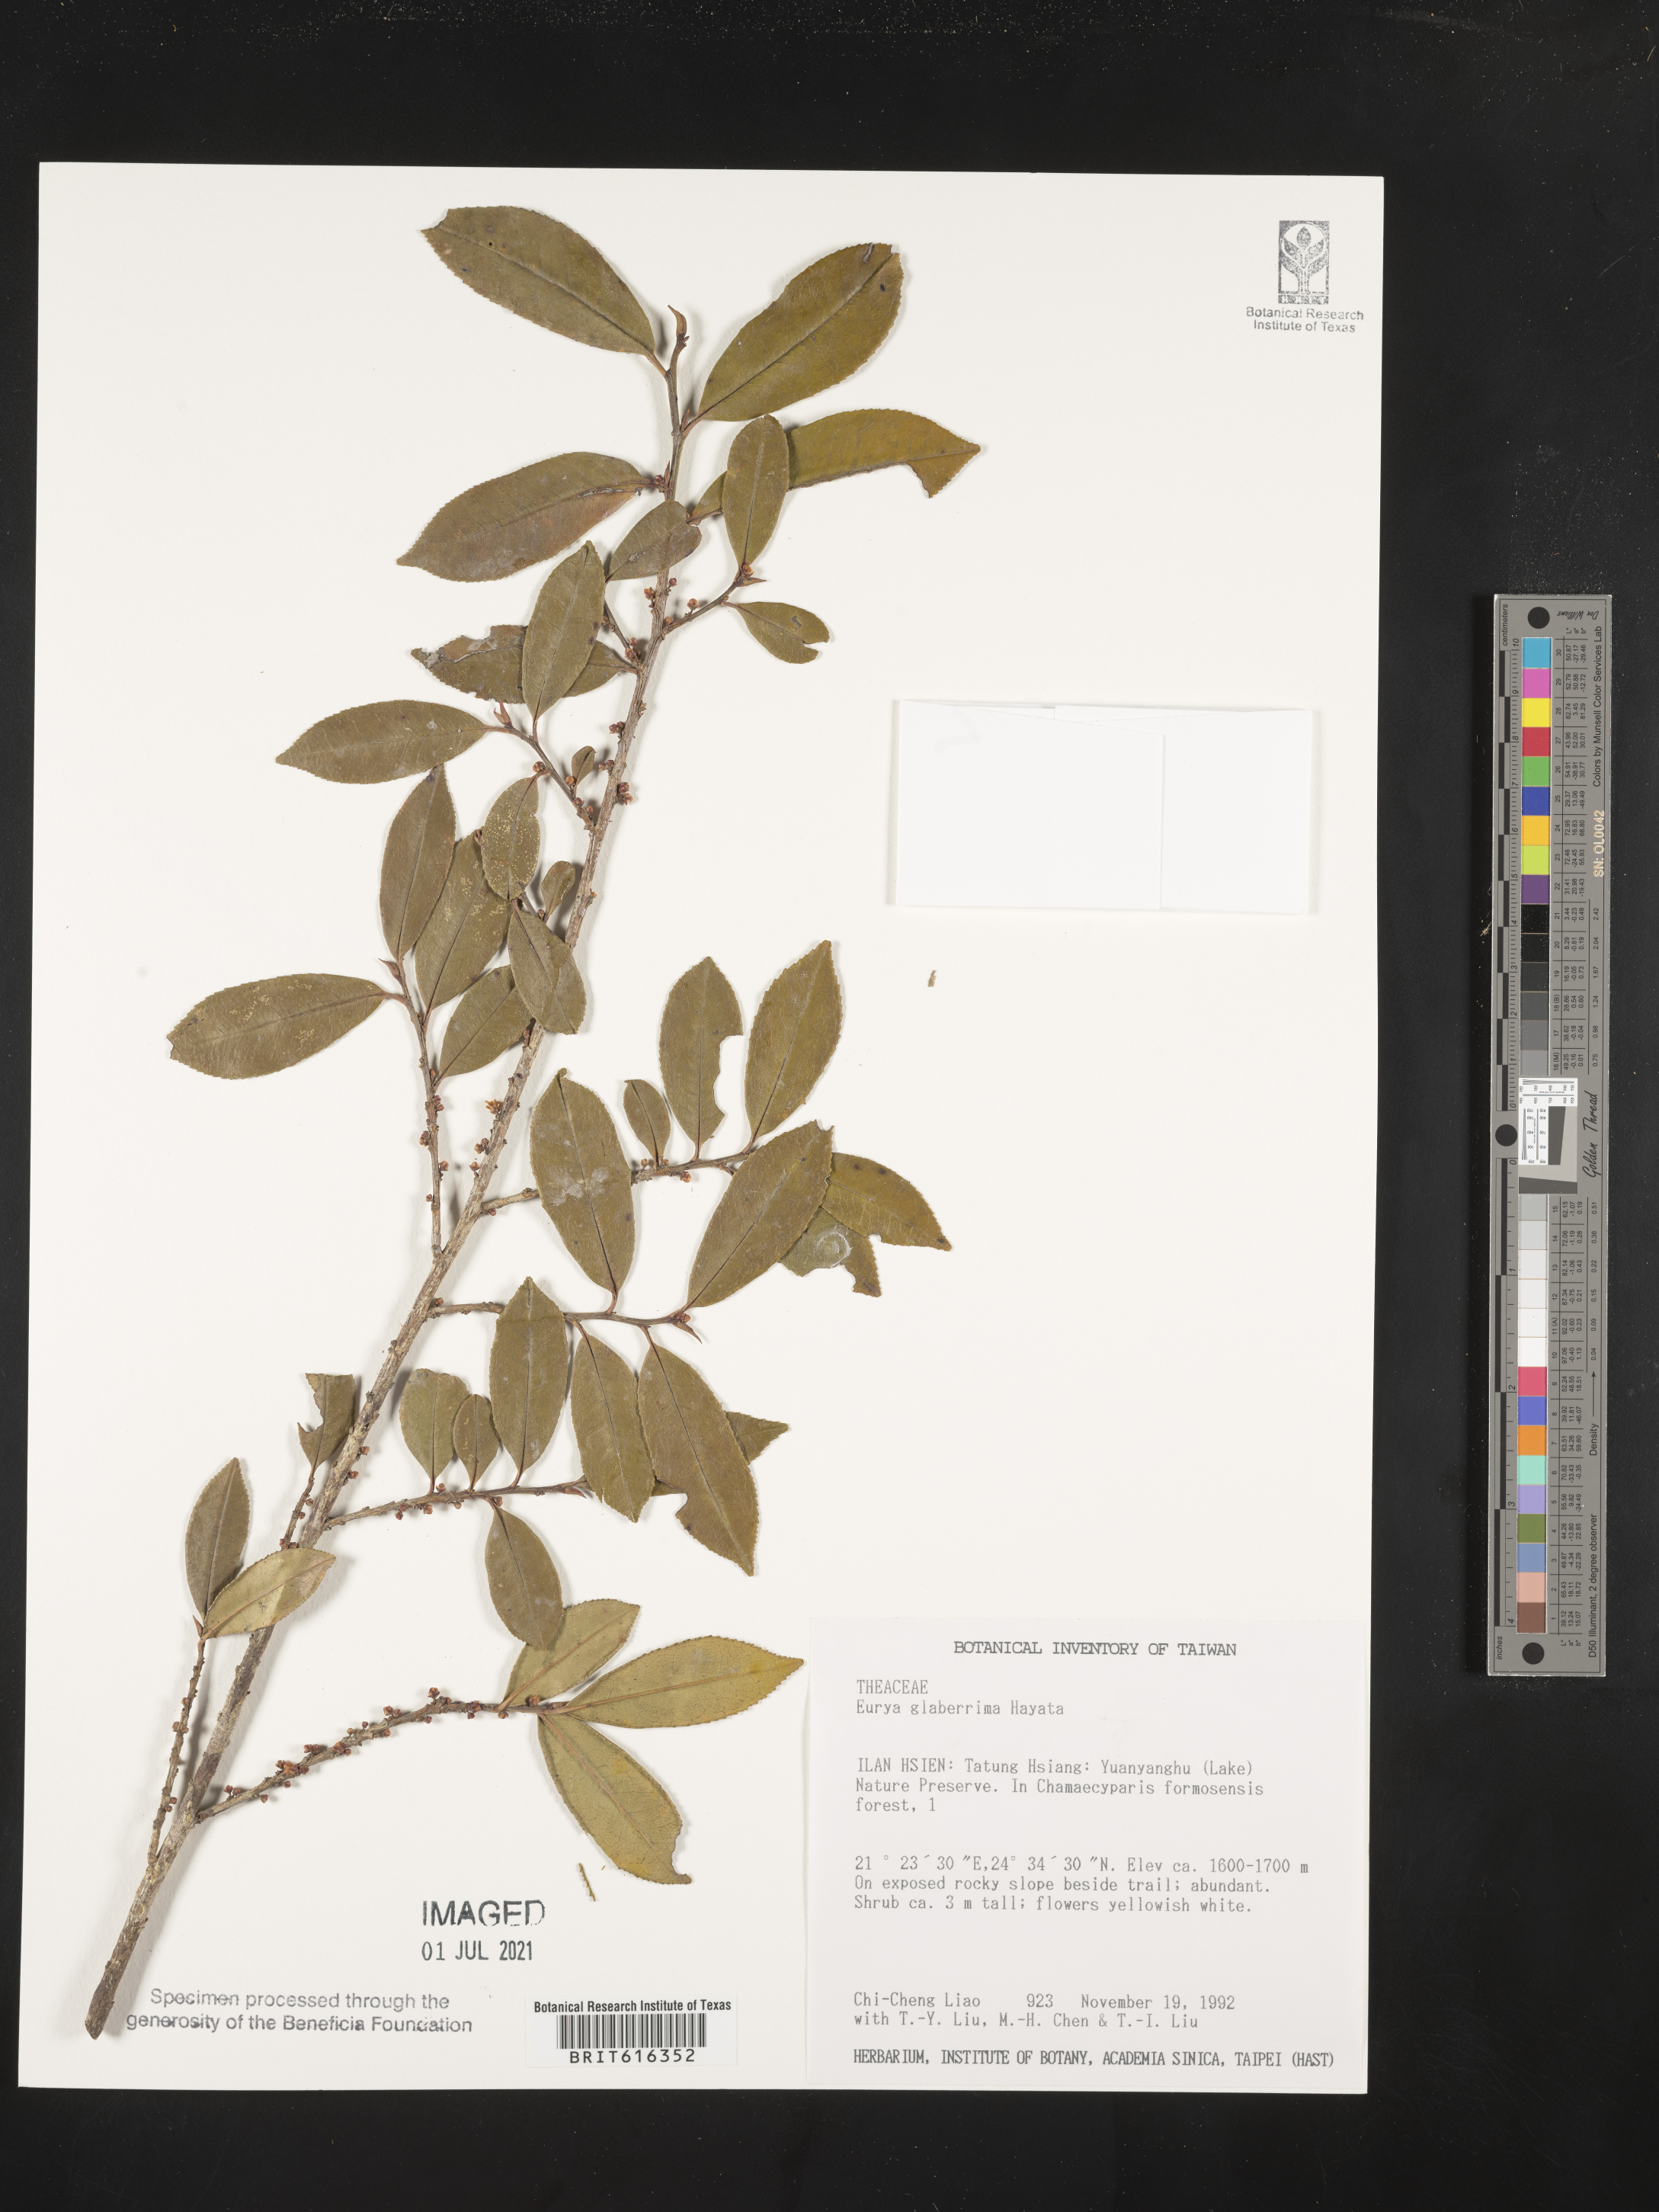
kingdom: Plantae
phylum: Tracheophyta
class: Magnoliopsida
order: Ericales
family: Pentaphylacaceae
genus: Eurya
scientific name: Eurya glaberrima
